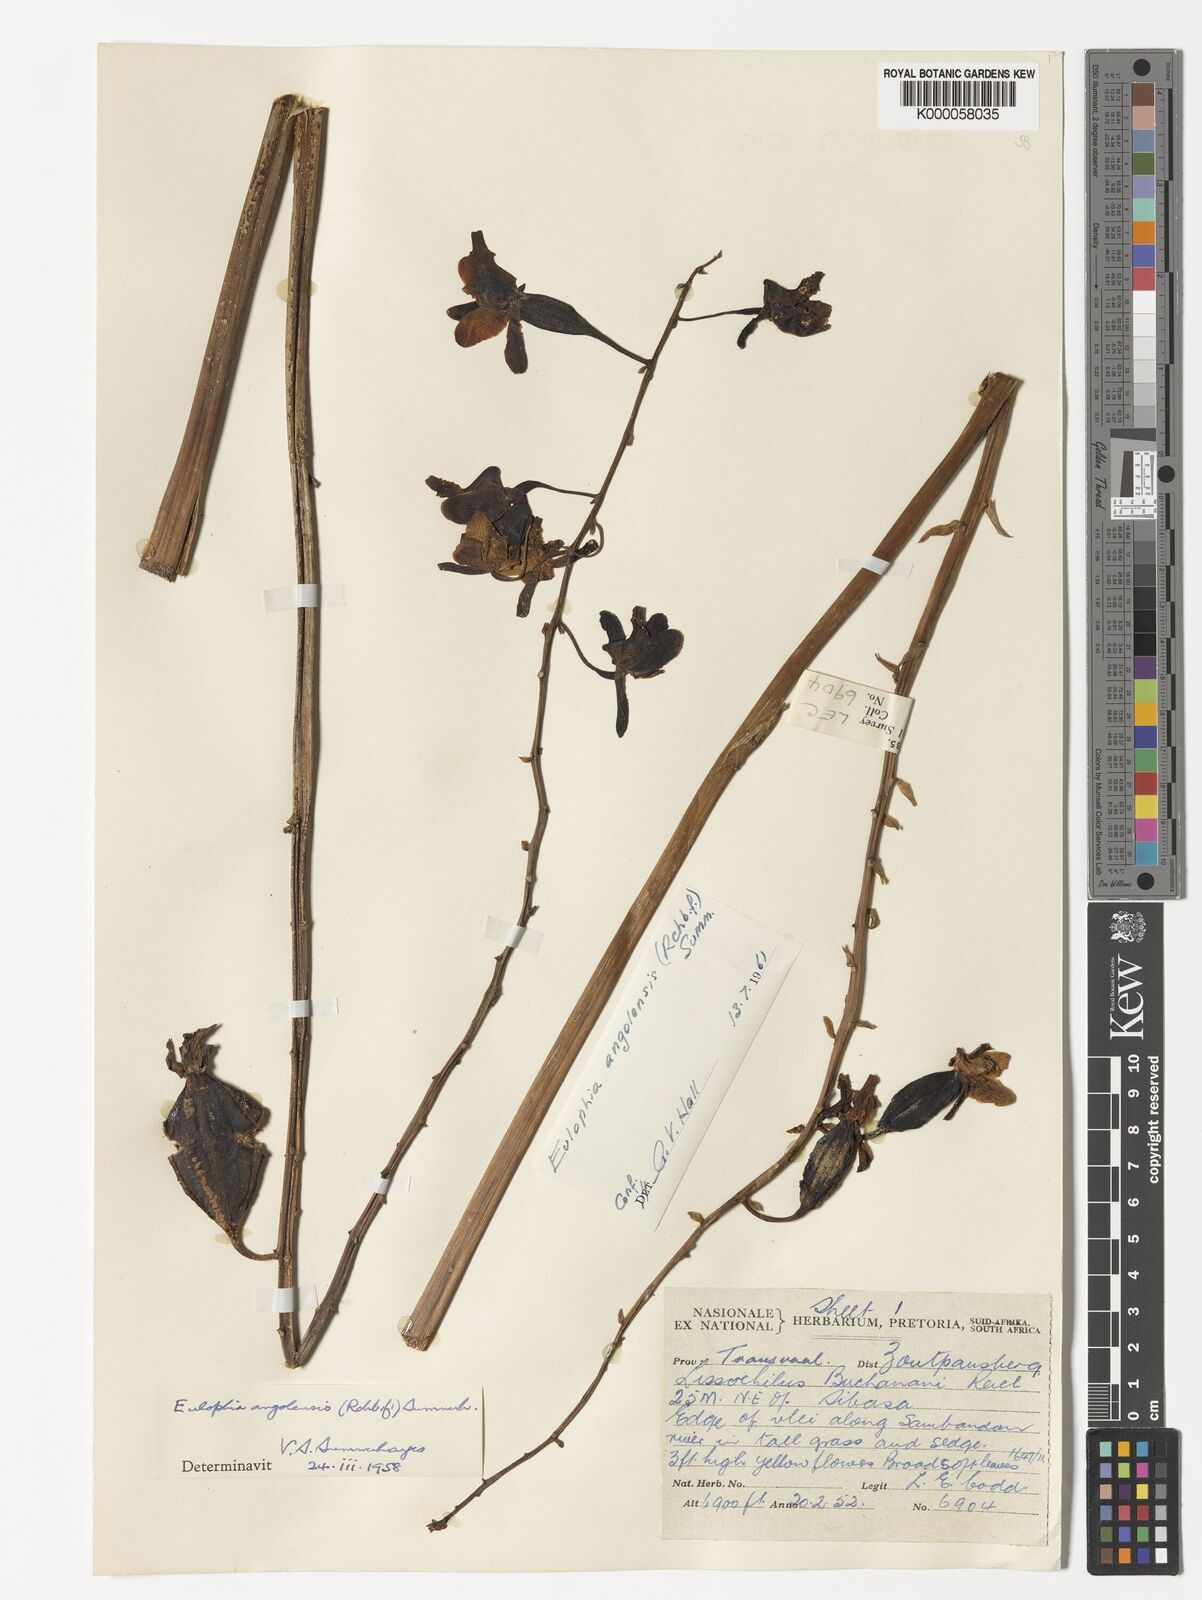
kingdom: Plantae
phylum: Tracheophyta
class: Liliopsida
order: Asparagales
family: Orchidaceae
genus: Eulophia
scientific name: Eulophia angolensis
